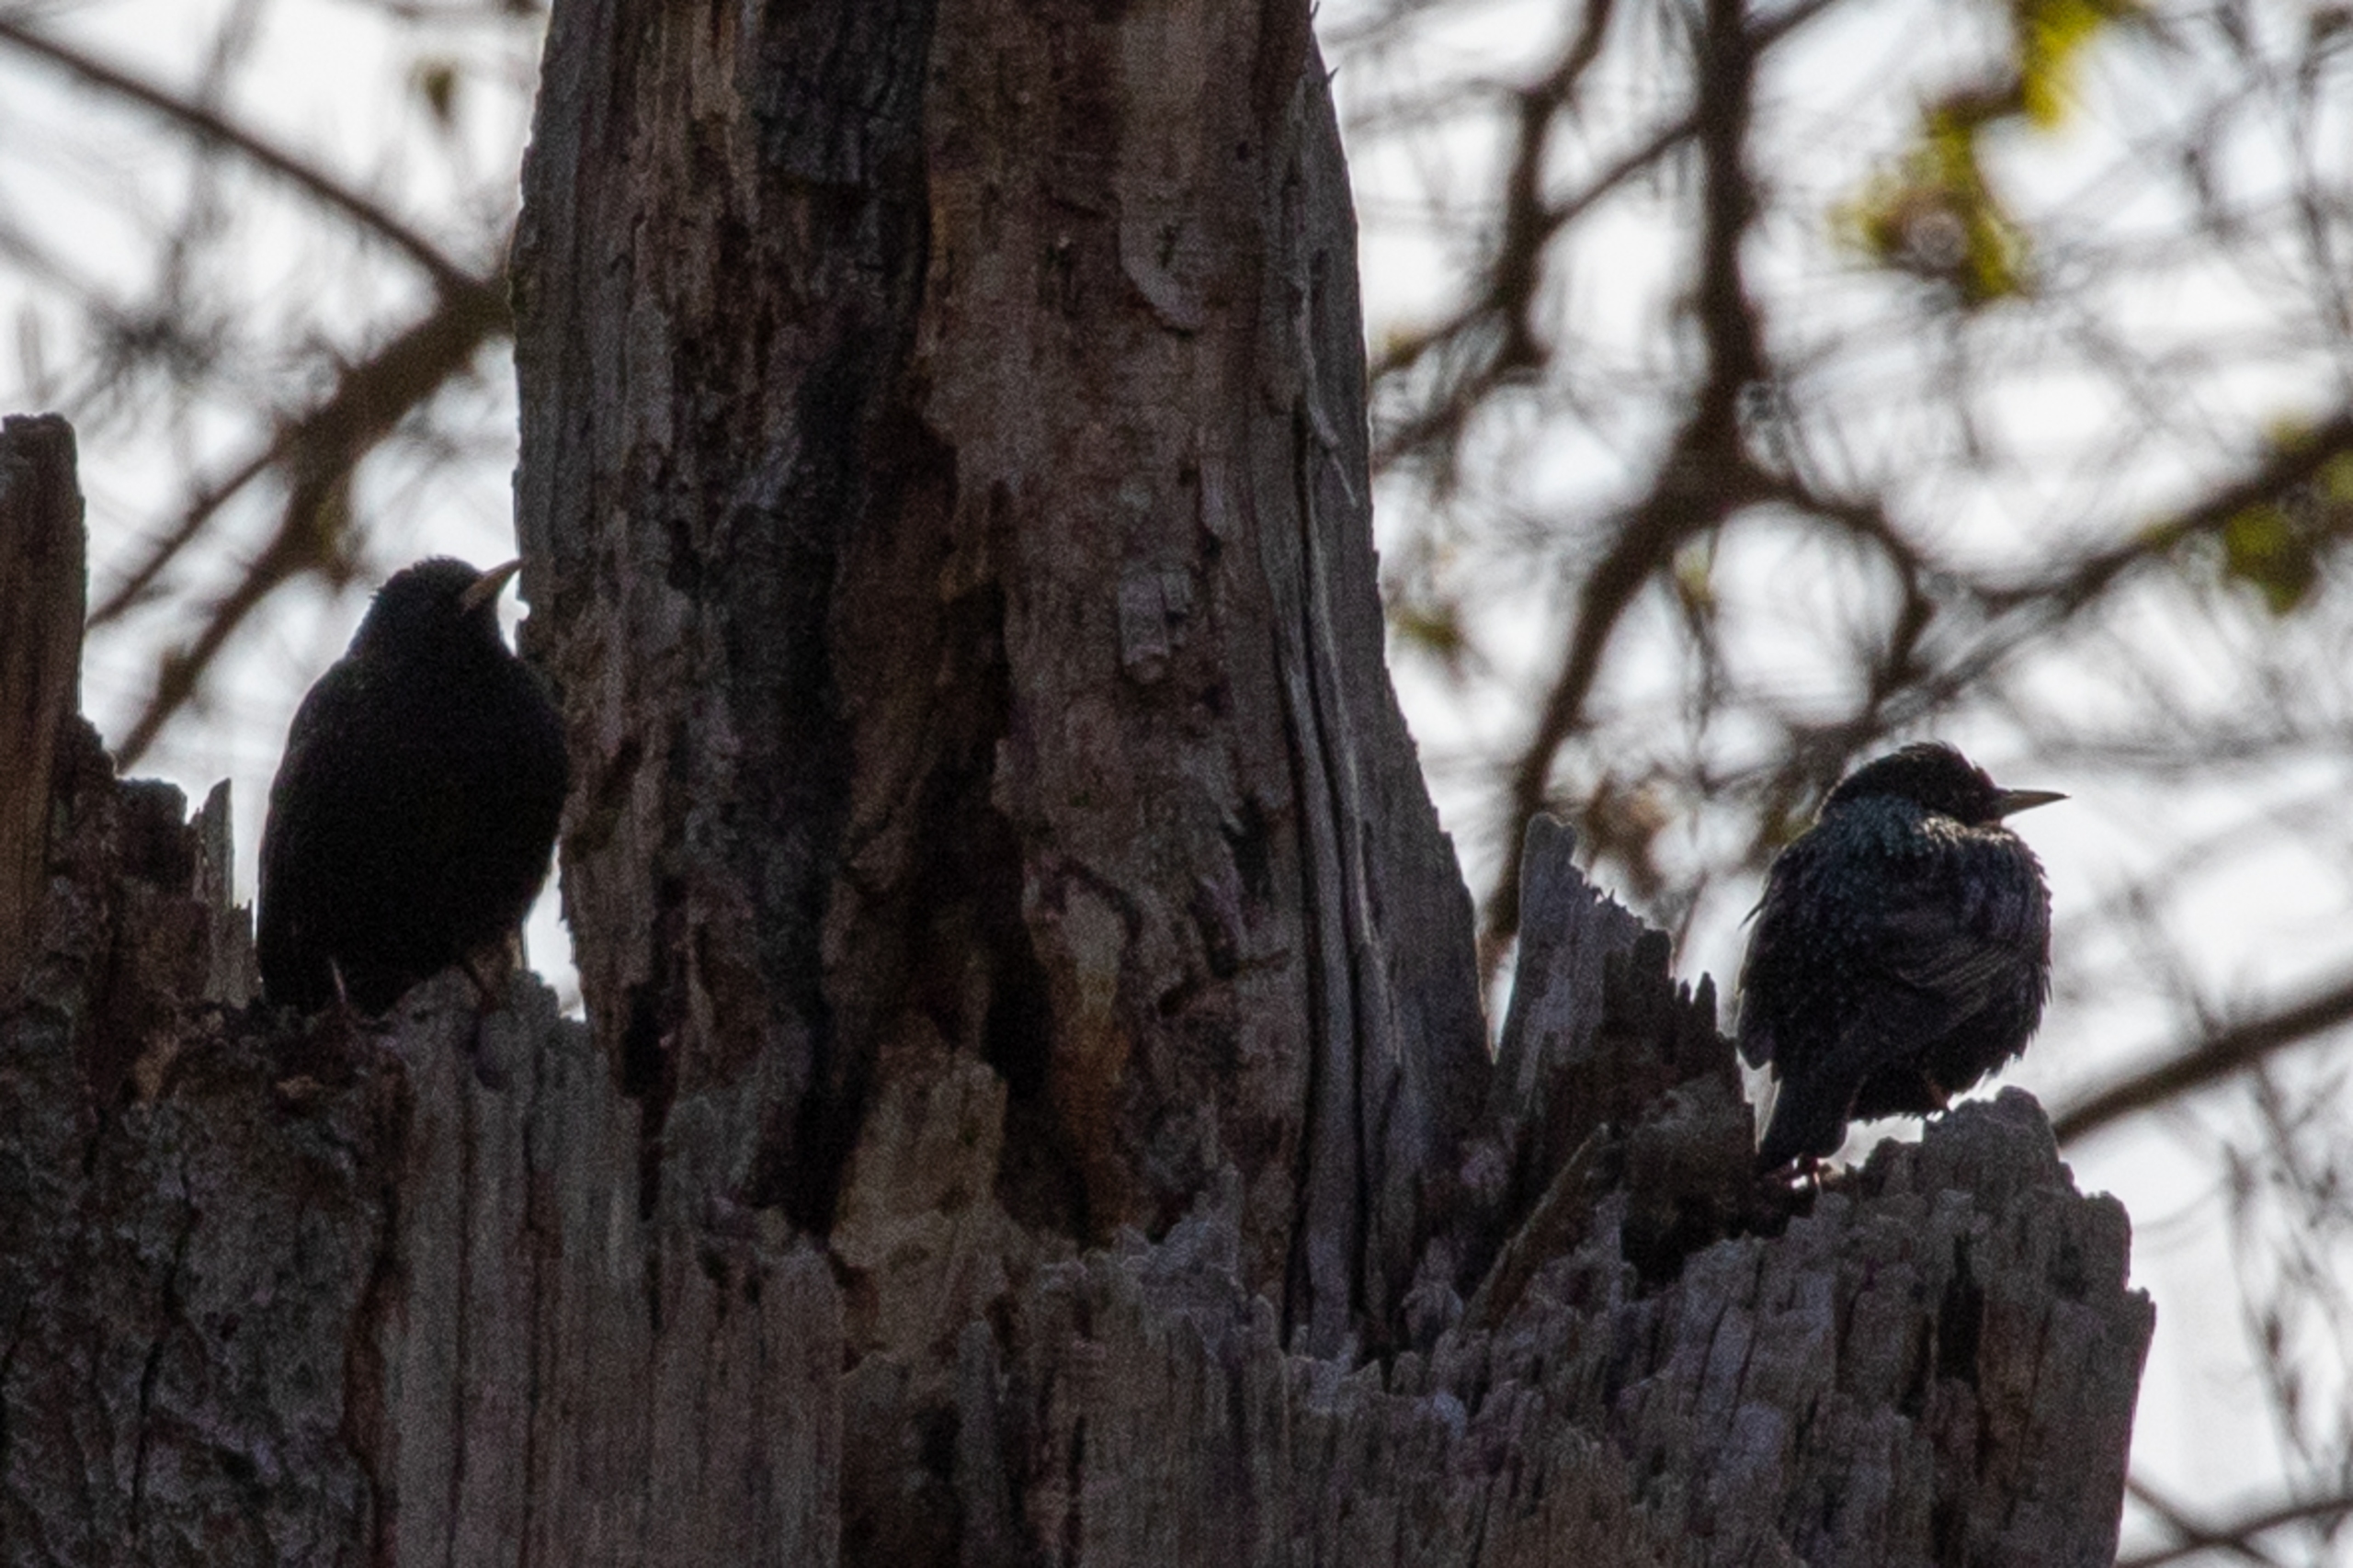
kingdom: Animalia
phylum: Chordata
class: Aves
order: Passeriformes
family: Sturnidae
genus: Sturnus
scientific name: Sturnus vulgaris
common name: Stær
